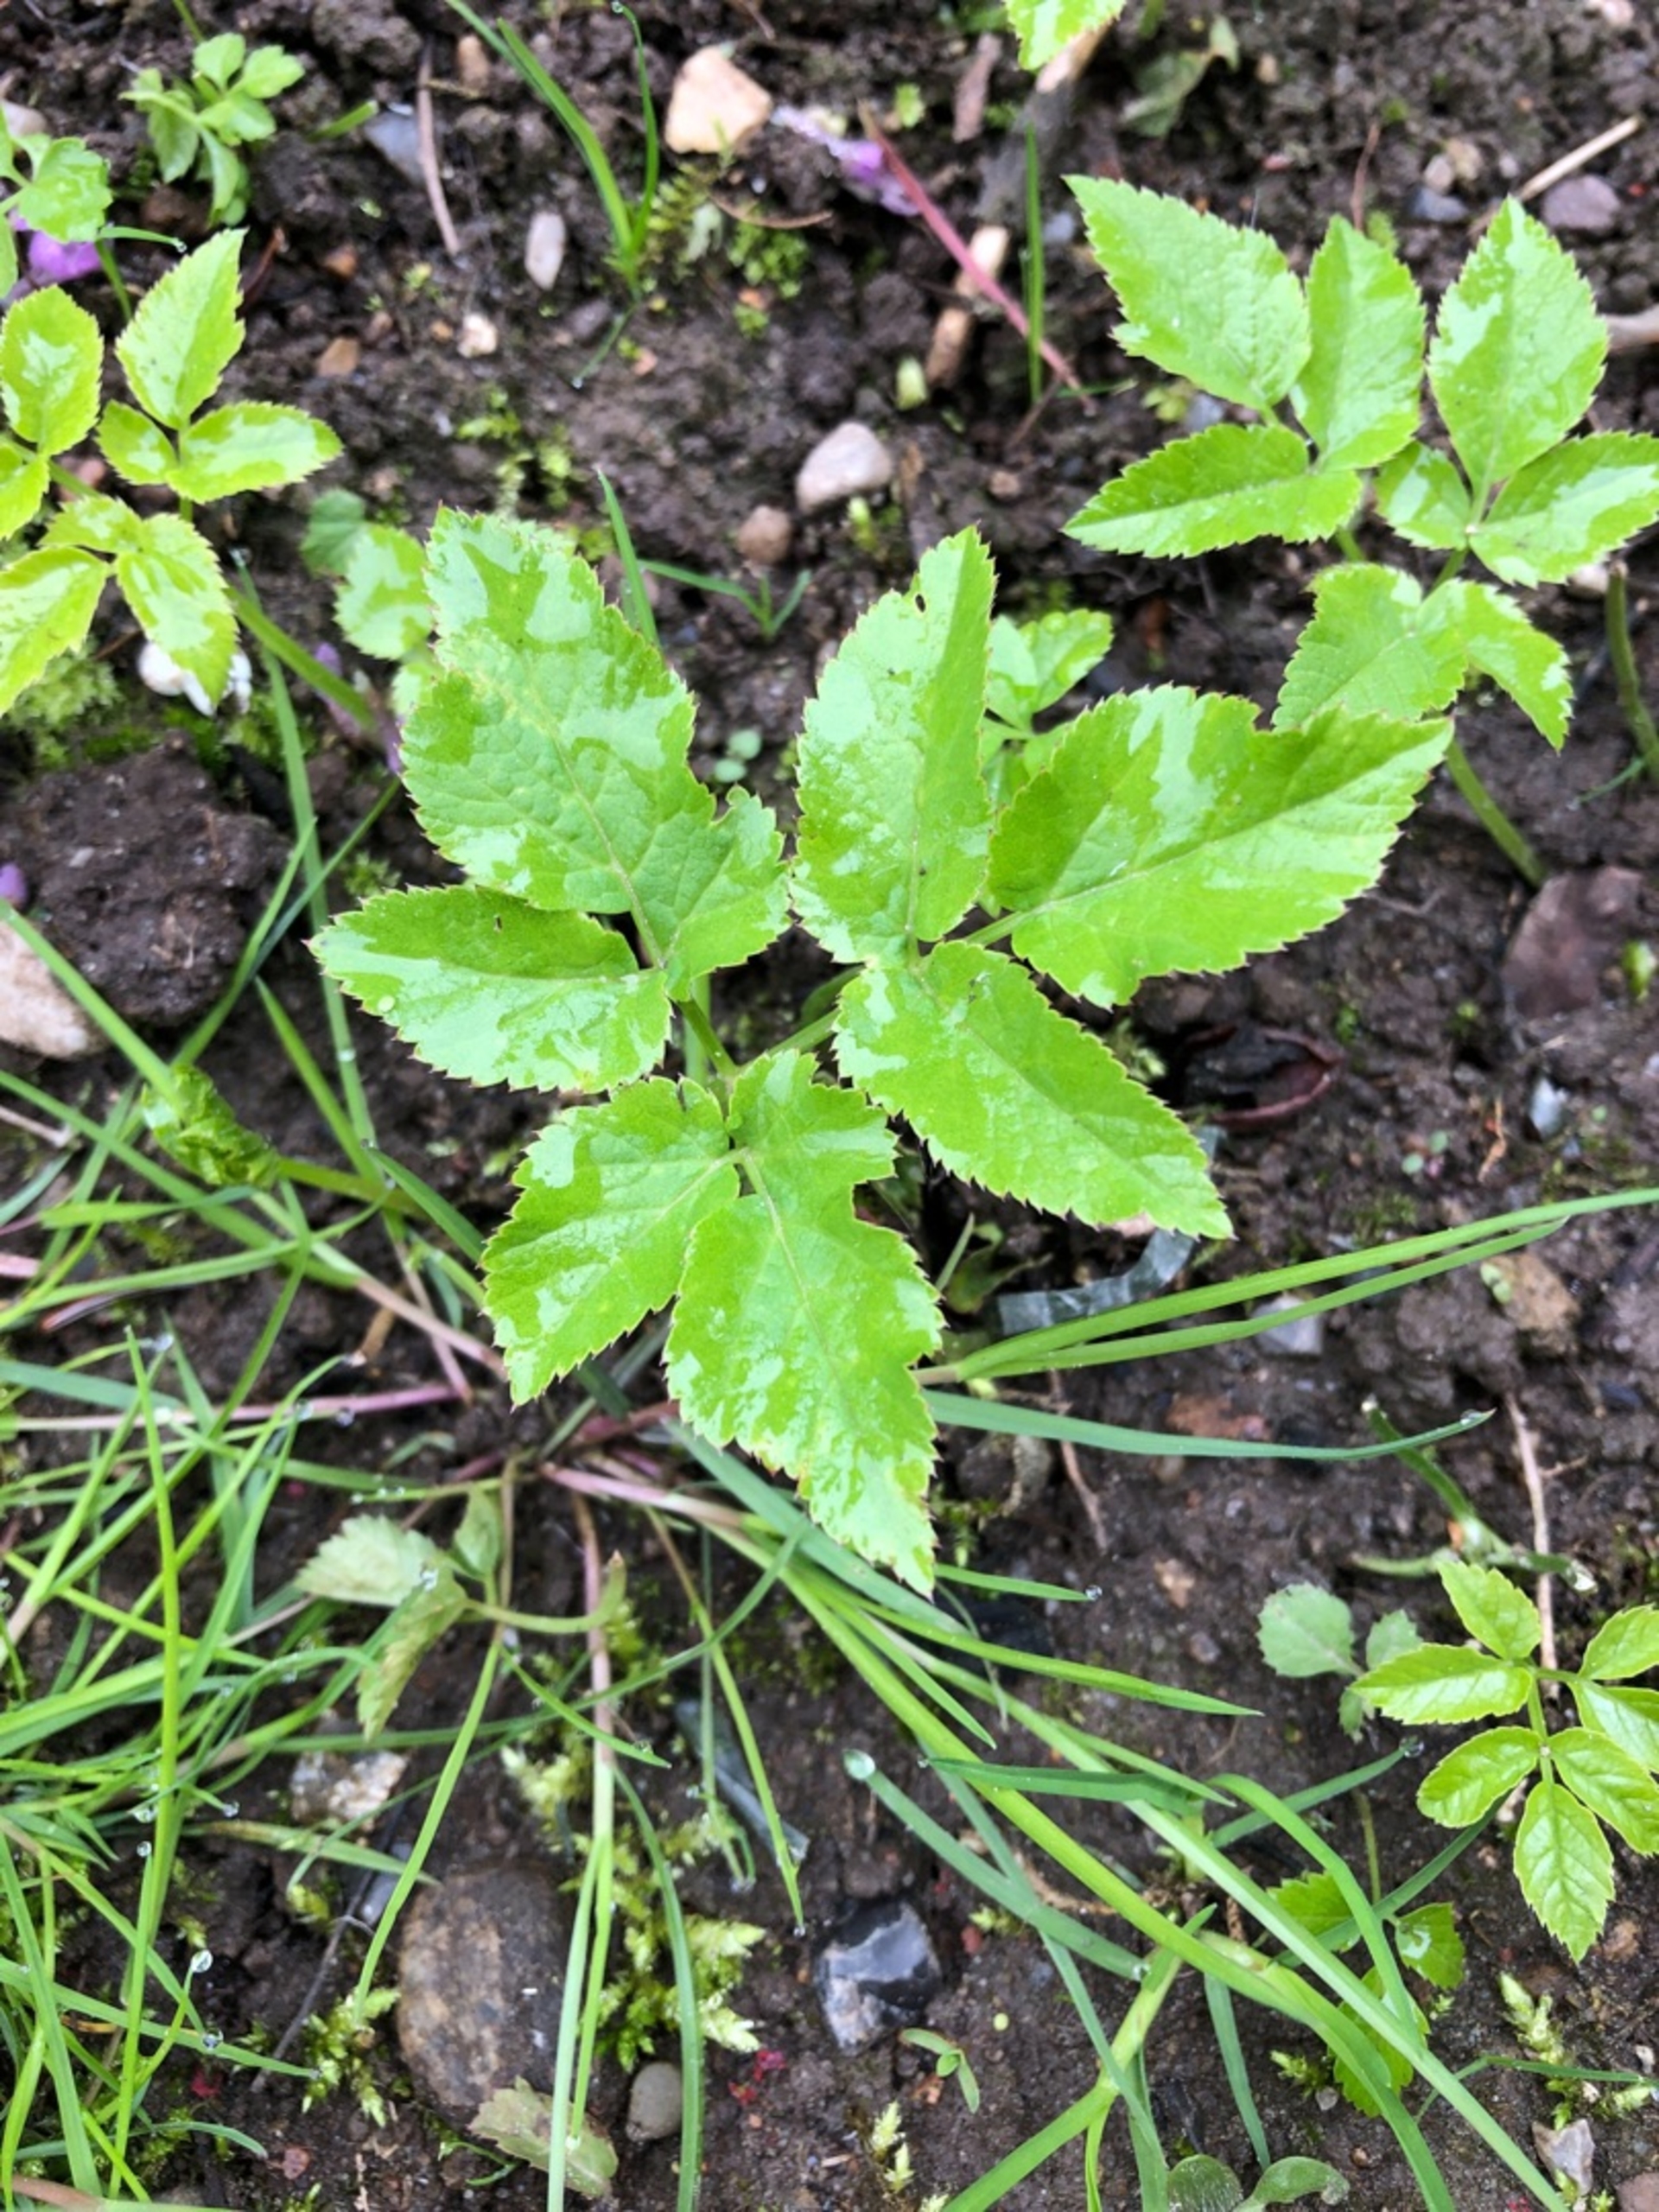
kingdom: Plantae
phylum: Tracheophyta
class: Magnoliopsida
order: Apiales
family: Apiaceae
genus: Aegopodium
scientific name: Aegopodium podagraria
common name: Skvalderkål
